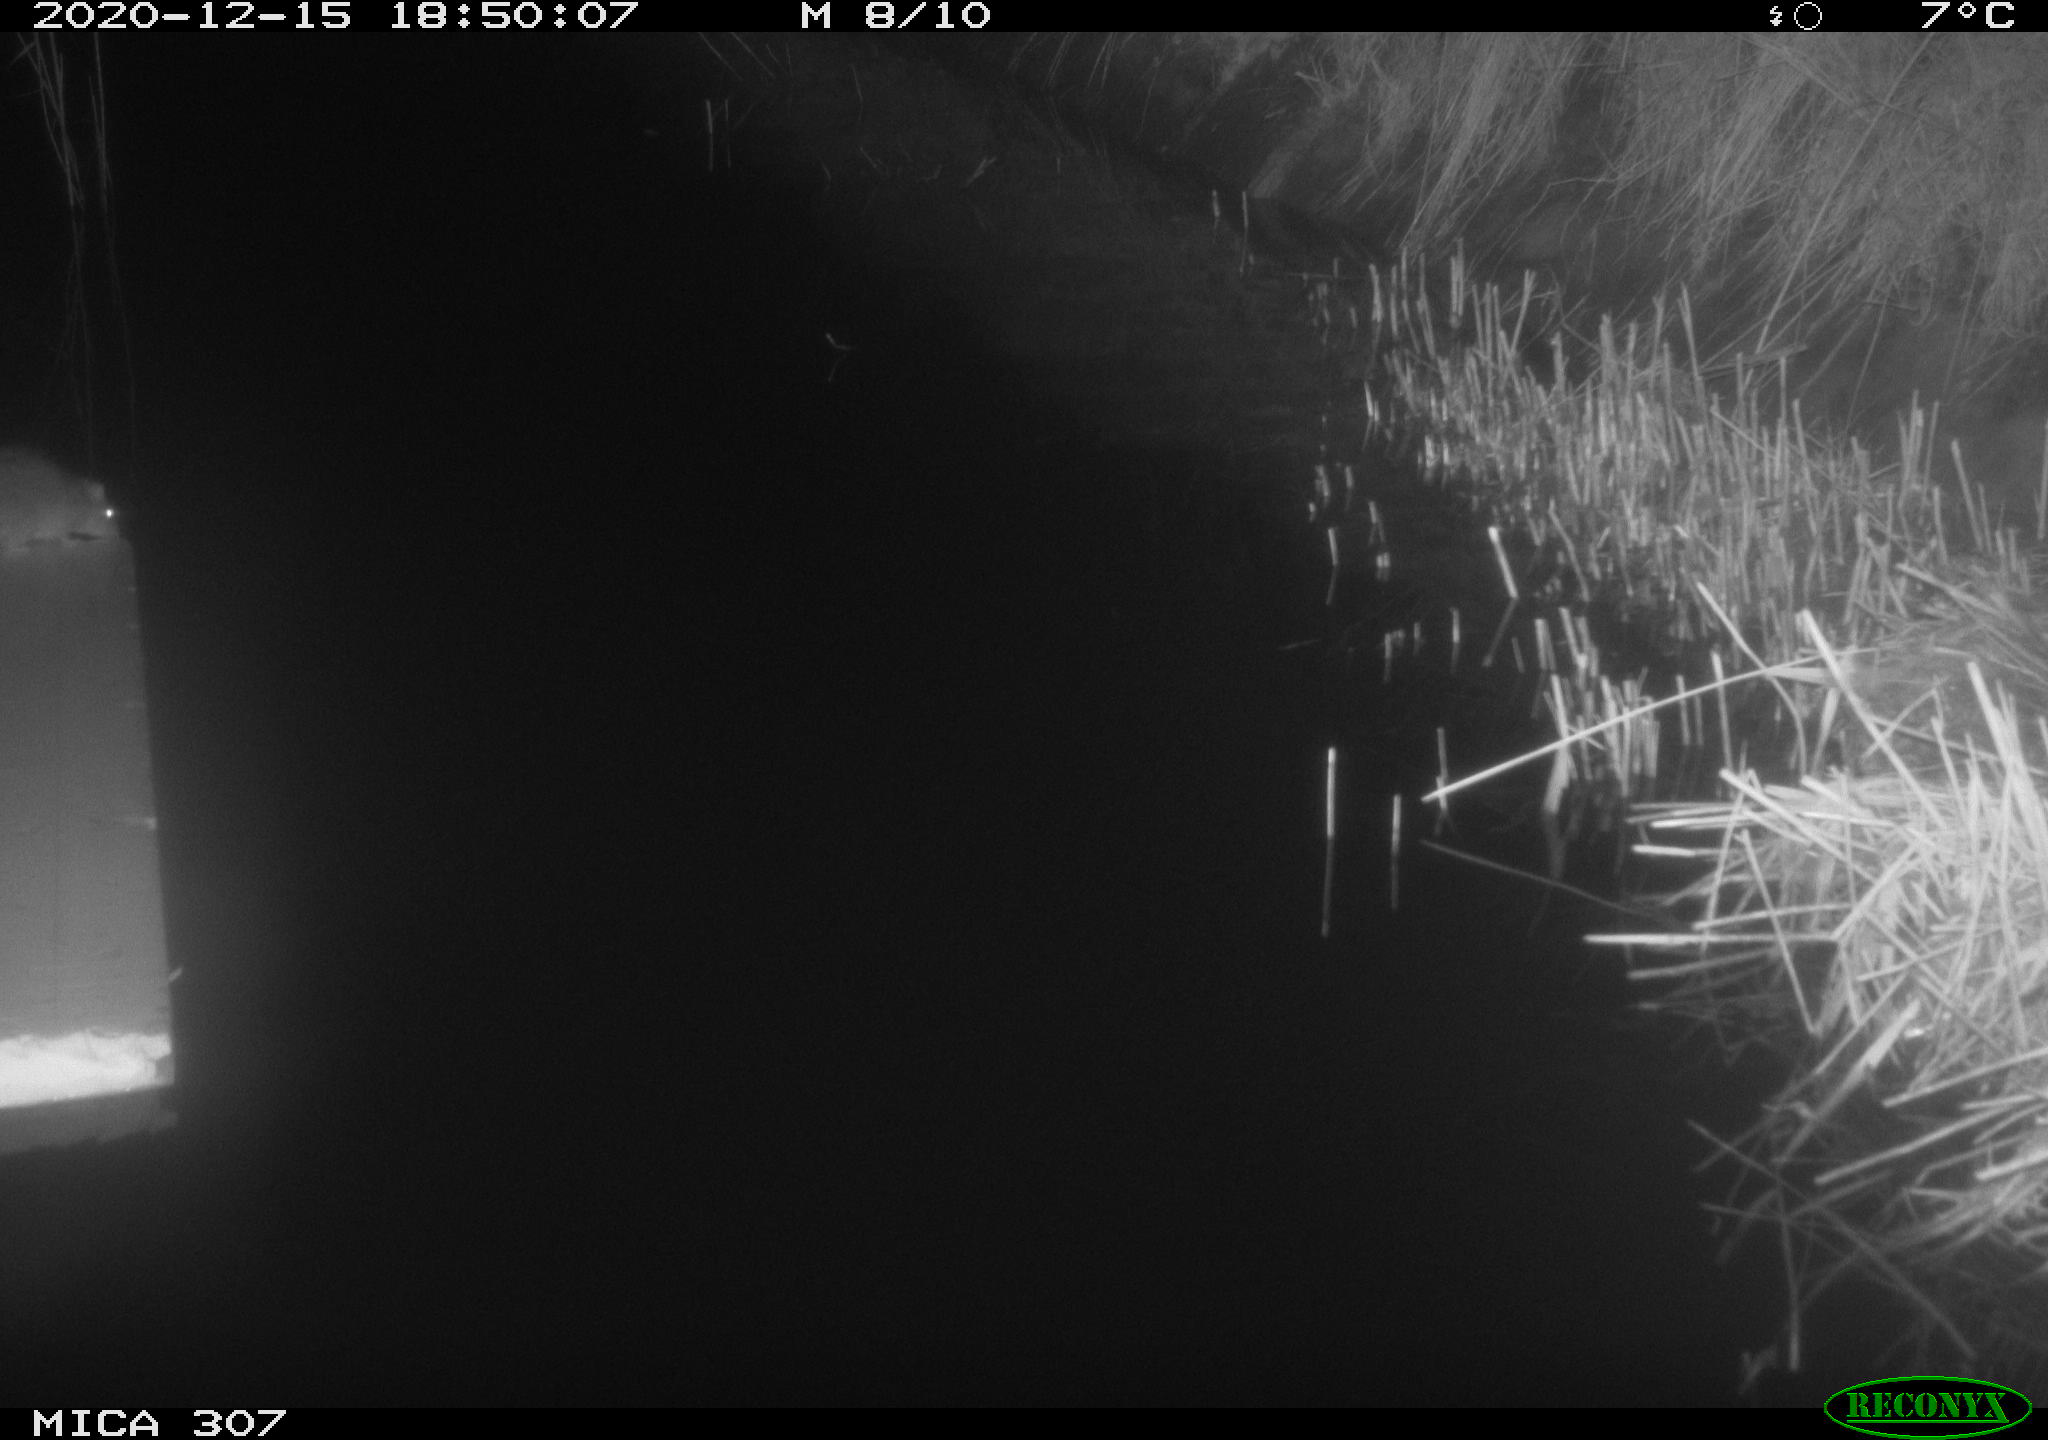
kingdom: Animalia
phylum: Chordata
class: Mammalia
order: Rodentia
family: Muridae
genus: Rattus
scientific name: Rattus norvegicus
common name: Brown rat
